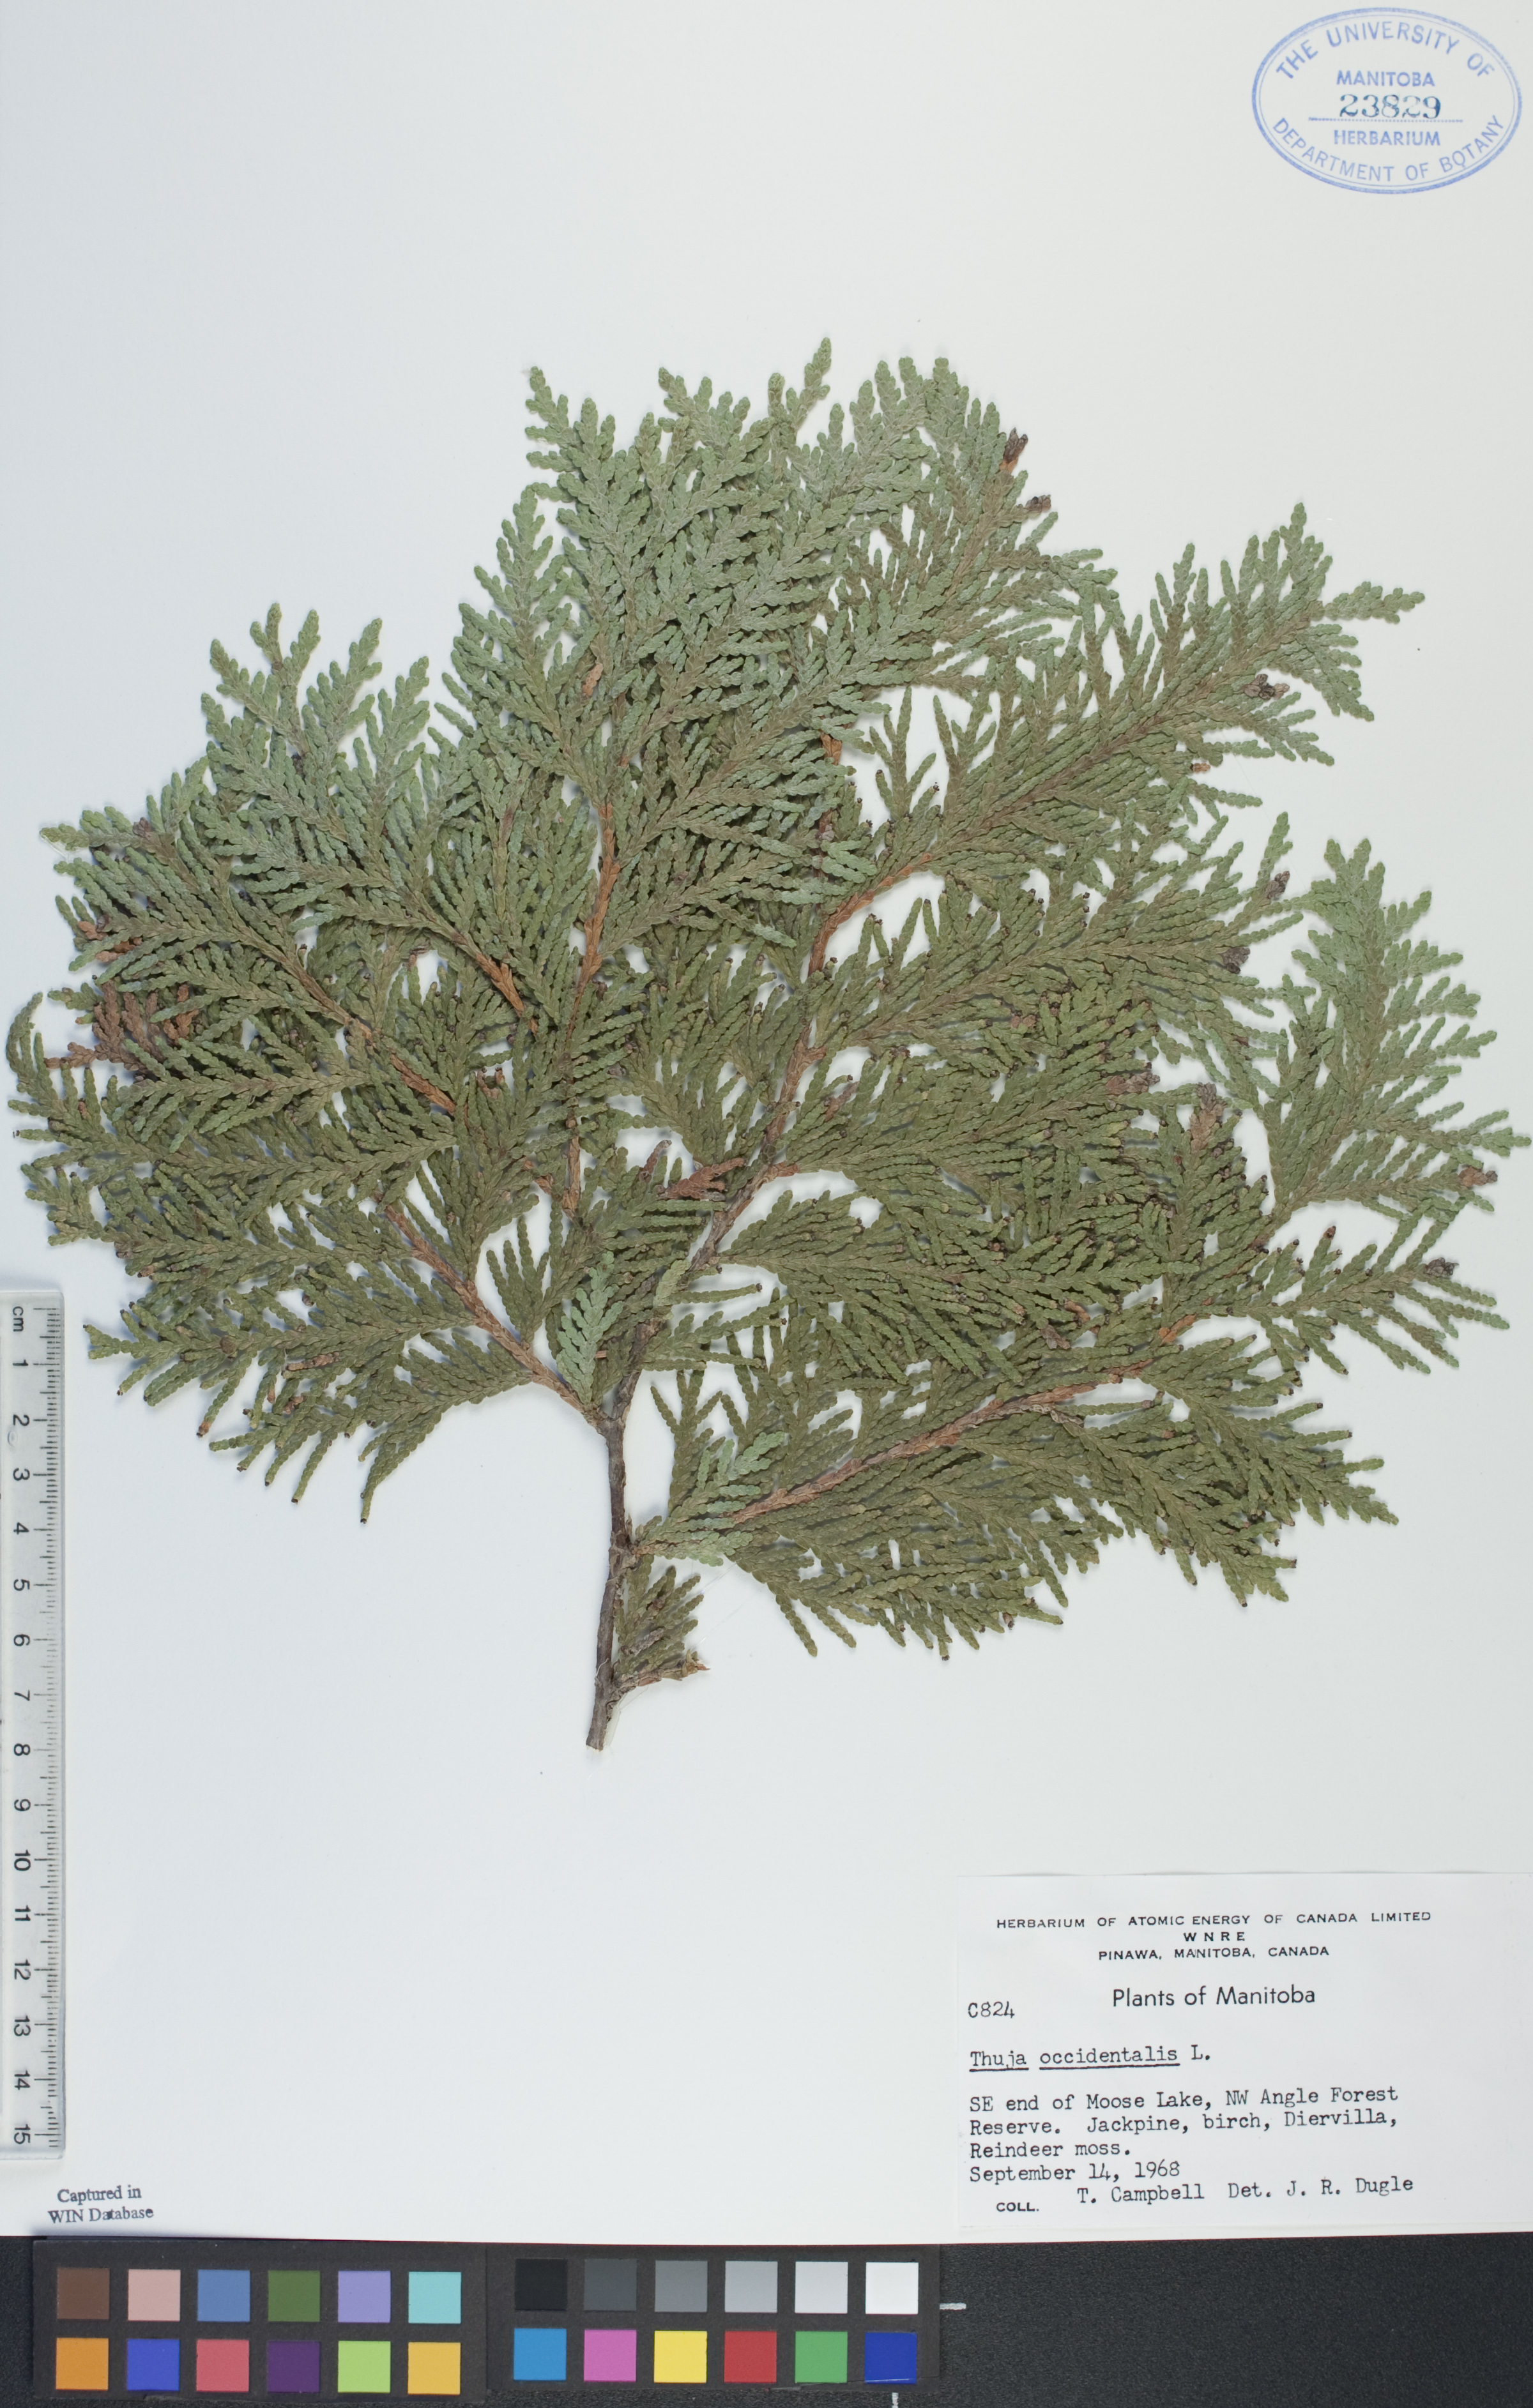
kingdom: Plantae
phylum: Tracheophyta
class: Pinopsida
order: Pinales
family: Cupressaceae
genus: Thuja
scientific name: Thuja occidentalis
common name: Northern white-cedar
